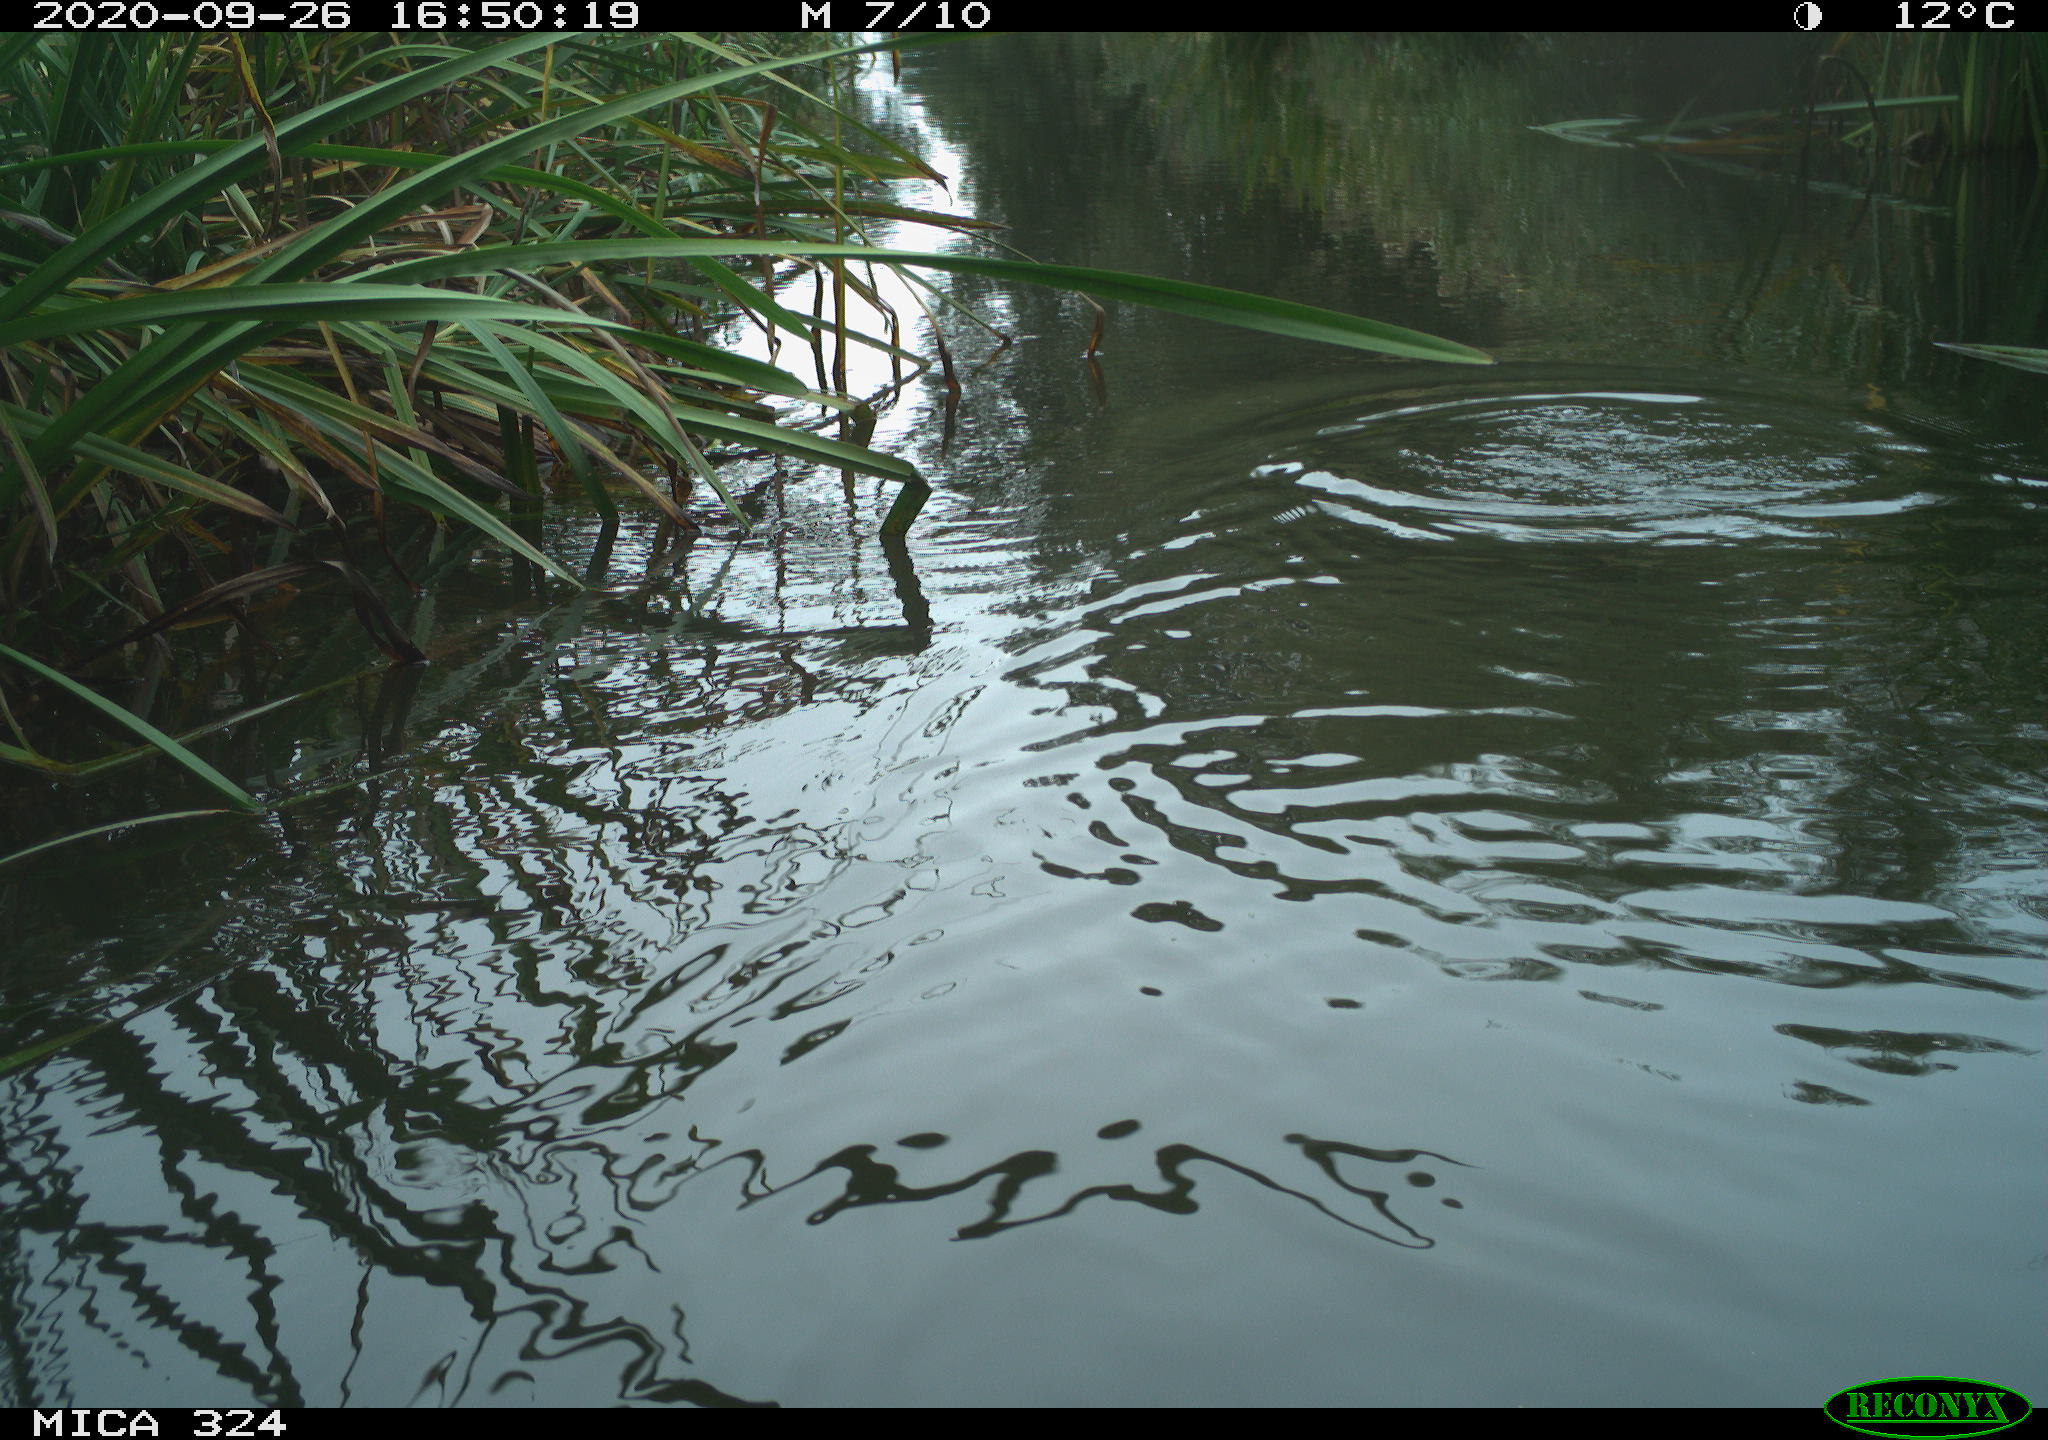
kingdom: Animalia
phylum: Chordata
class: Mammalia
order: Rodentia
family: Cricetidae
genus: Ondatra
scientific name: Ondatra zibethicus
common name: Muskrat
